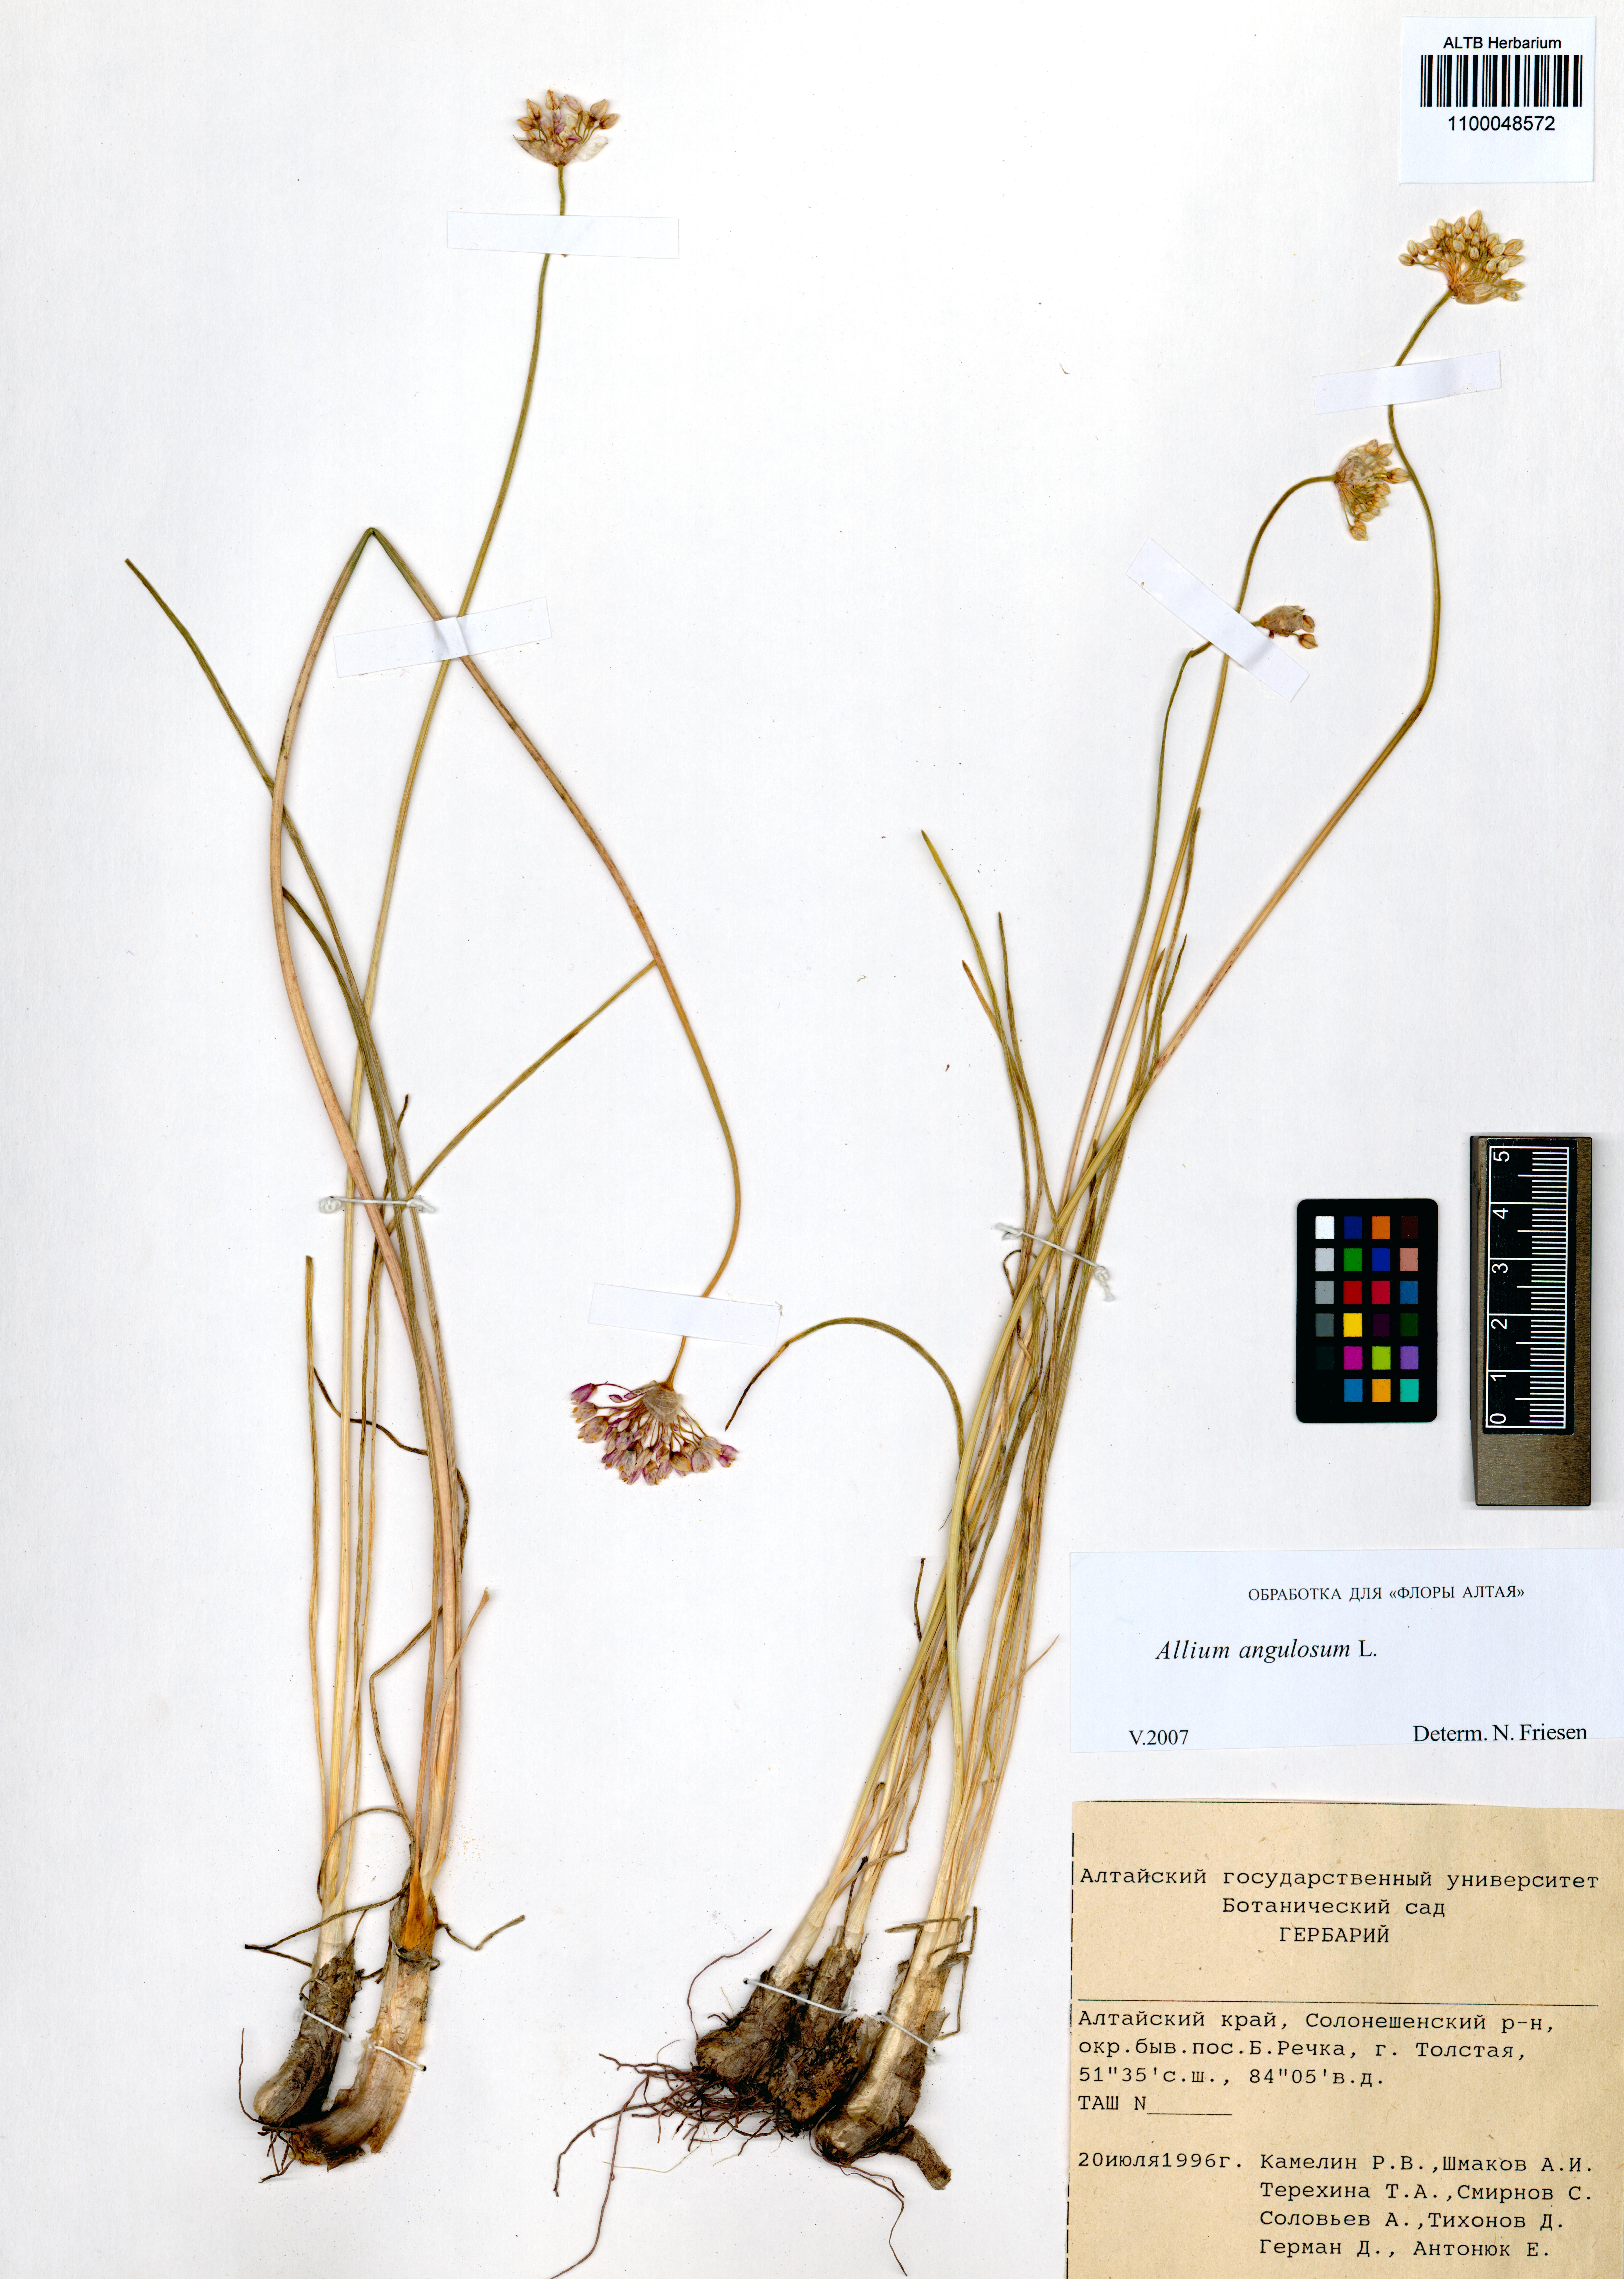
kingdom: Plantae
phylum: Tracheophyta
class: Liliopsida
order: Asparagales
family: Amaryllidaceae
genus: Allium
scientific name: Allium angulosum
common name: Mouse garlic
